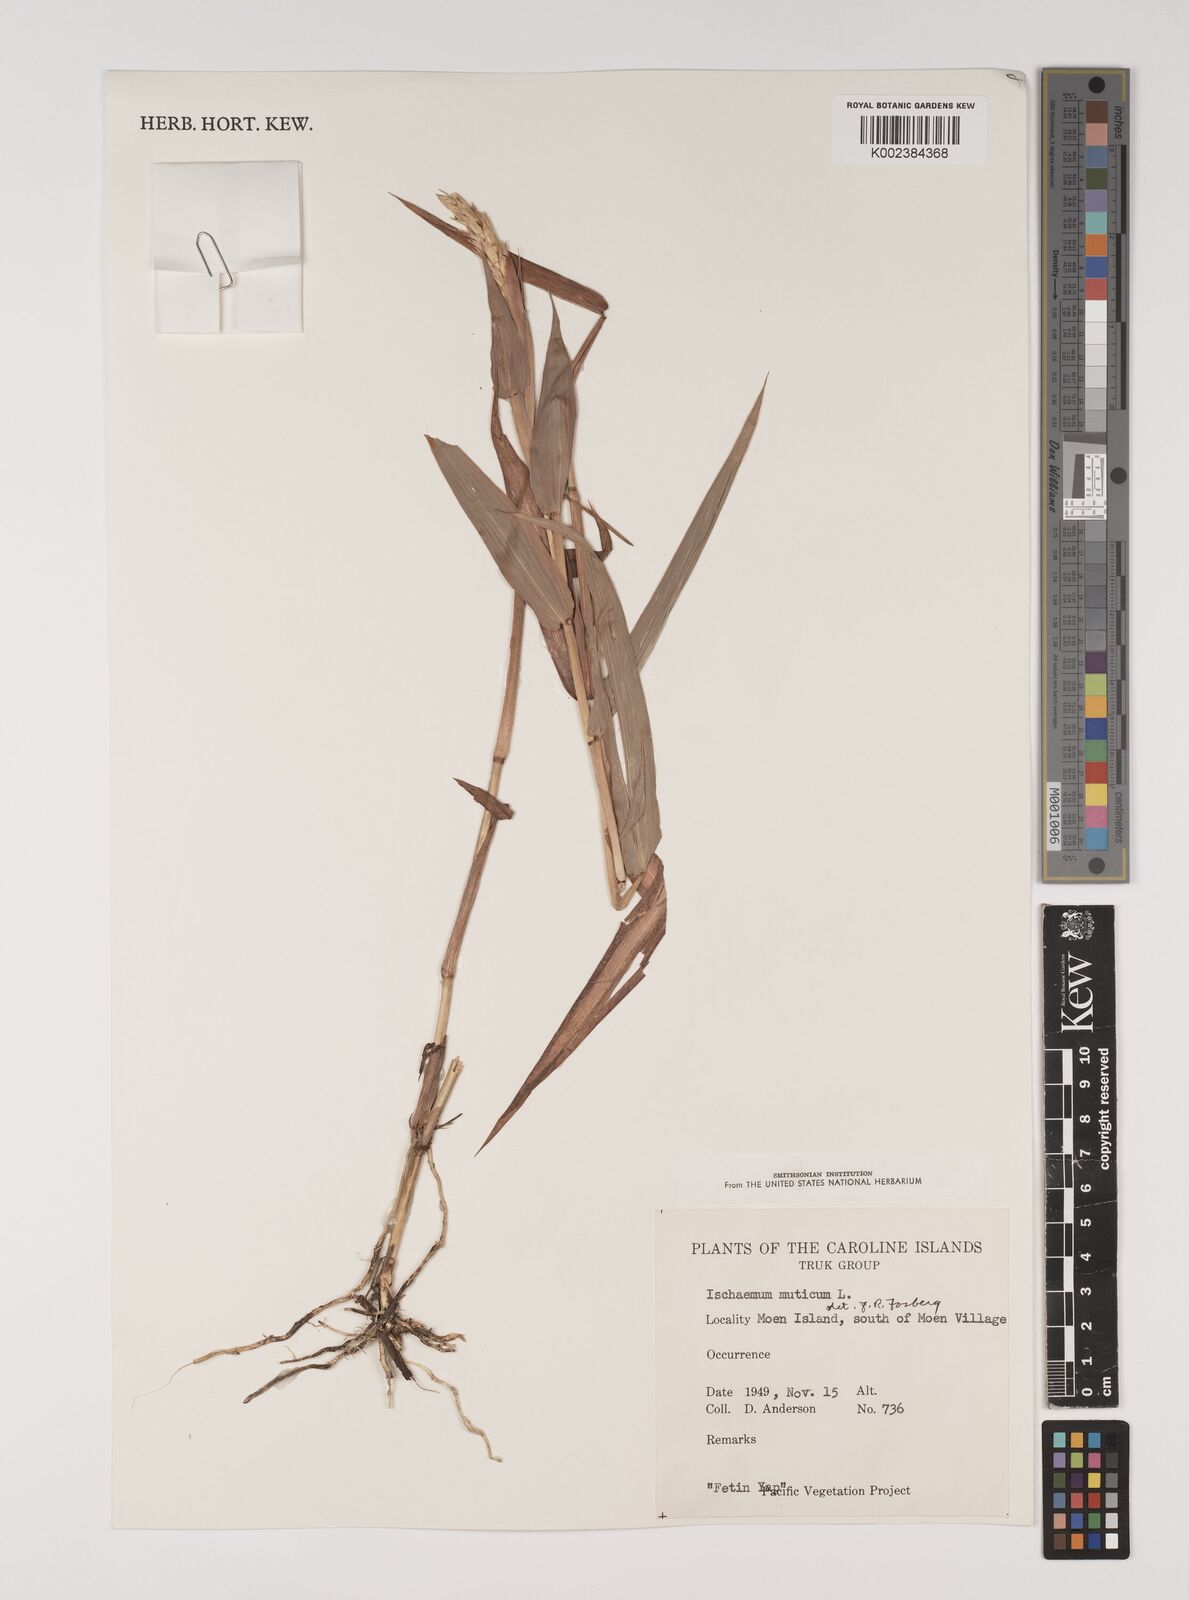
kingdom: Plantae
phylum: Tracheophyta
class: Liliopsida
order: Poales
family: Poaceae
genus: Ischaemum
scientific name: Ischaemum muticum
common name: Drought grass
